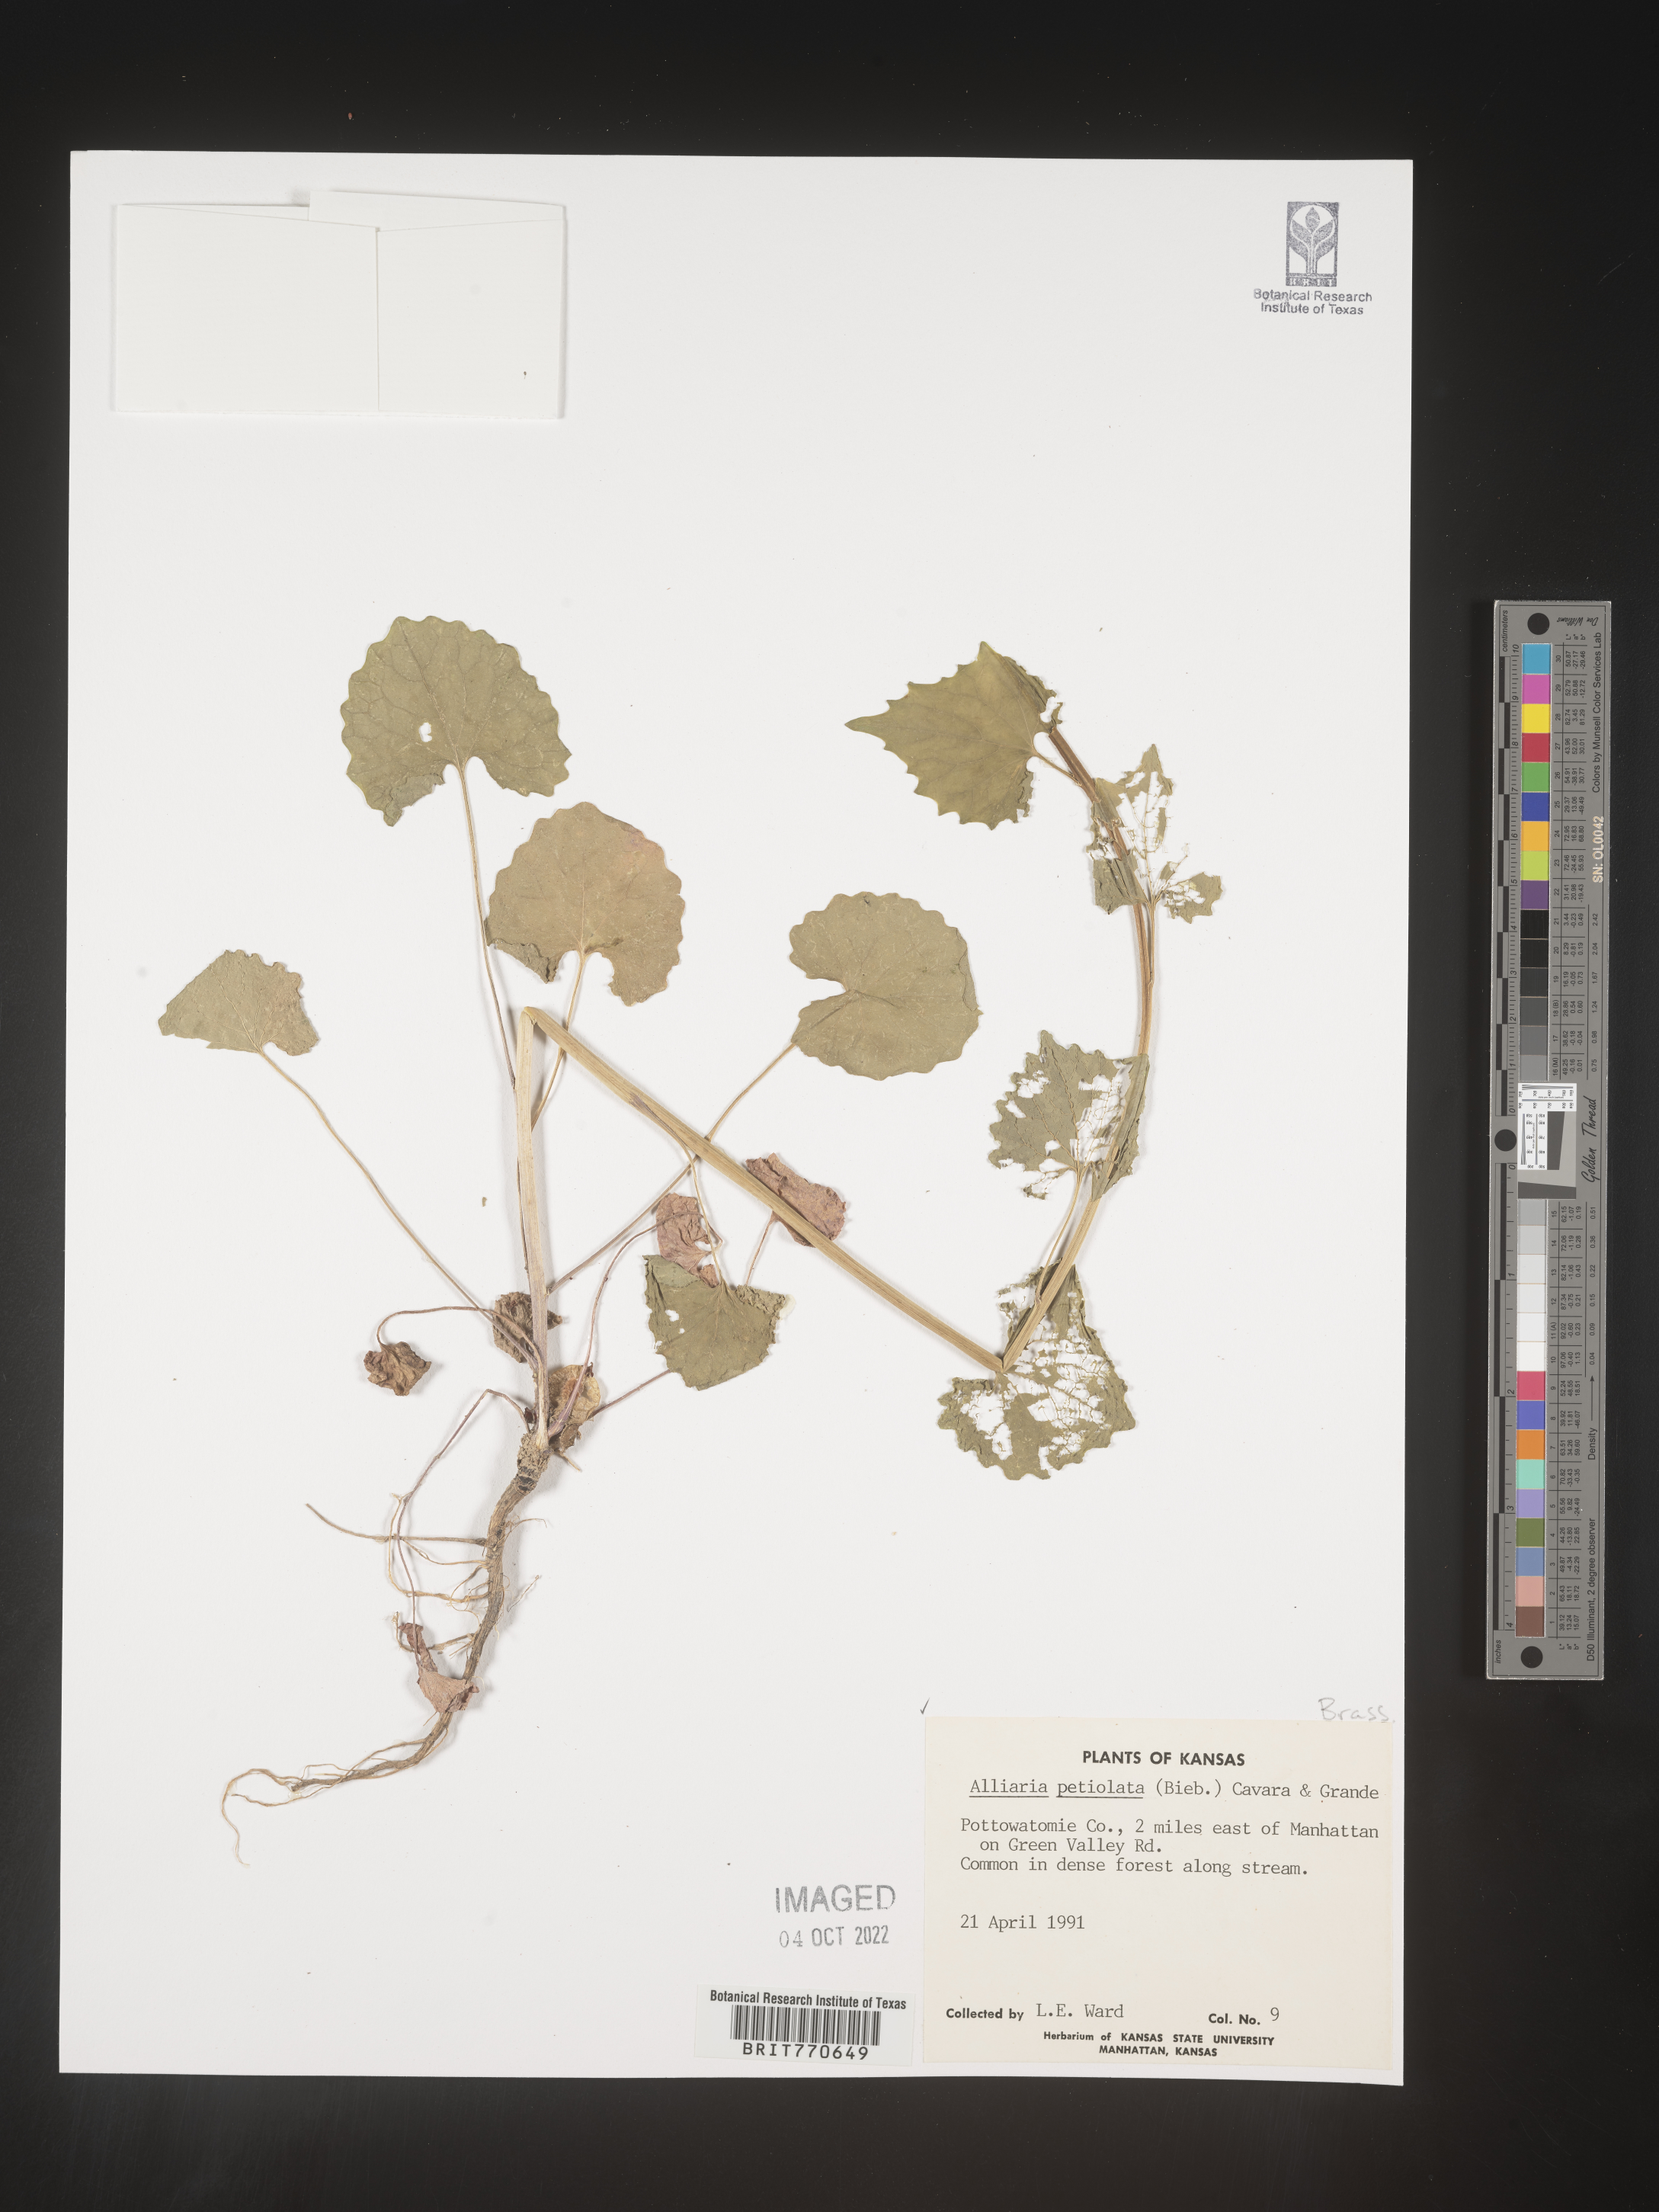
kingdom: Plantae
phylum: Tracheophyta
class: Magnoliopsida
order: Brassicales
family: Brassicaceae
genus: Alliaria
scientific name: Alliaria
